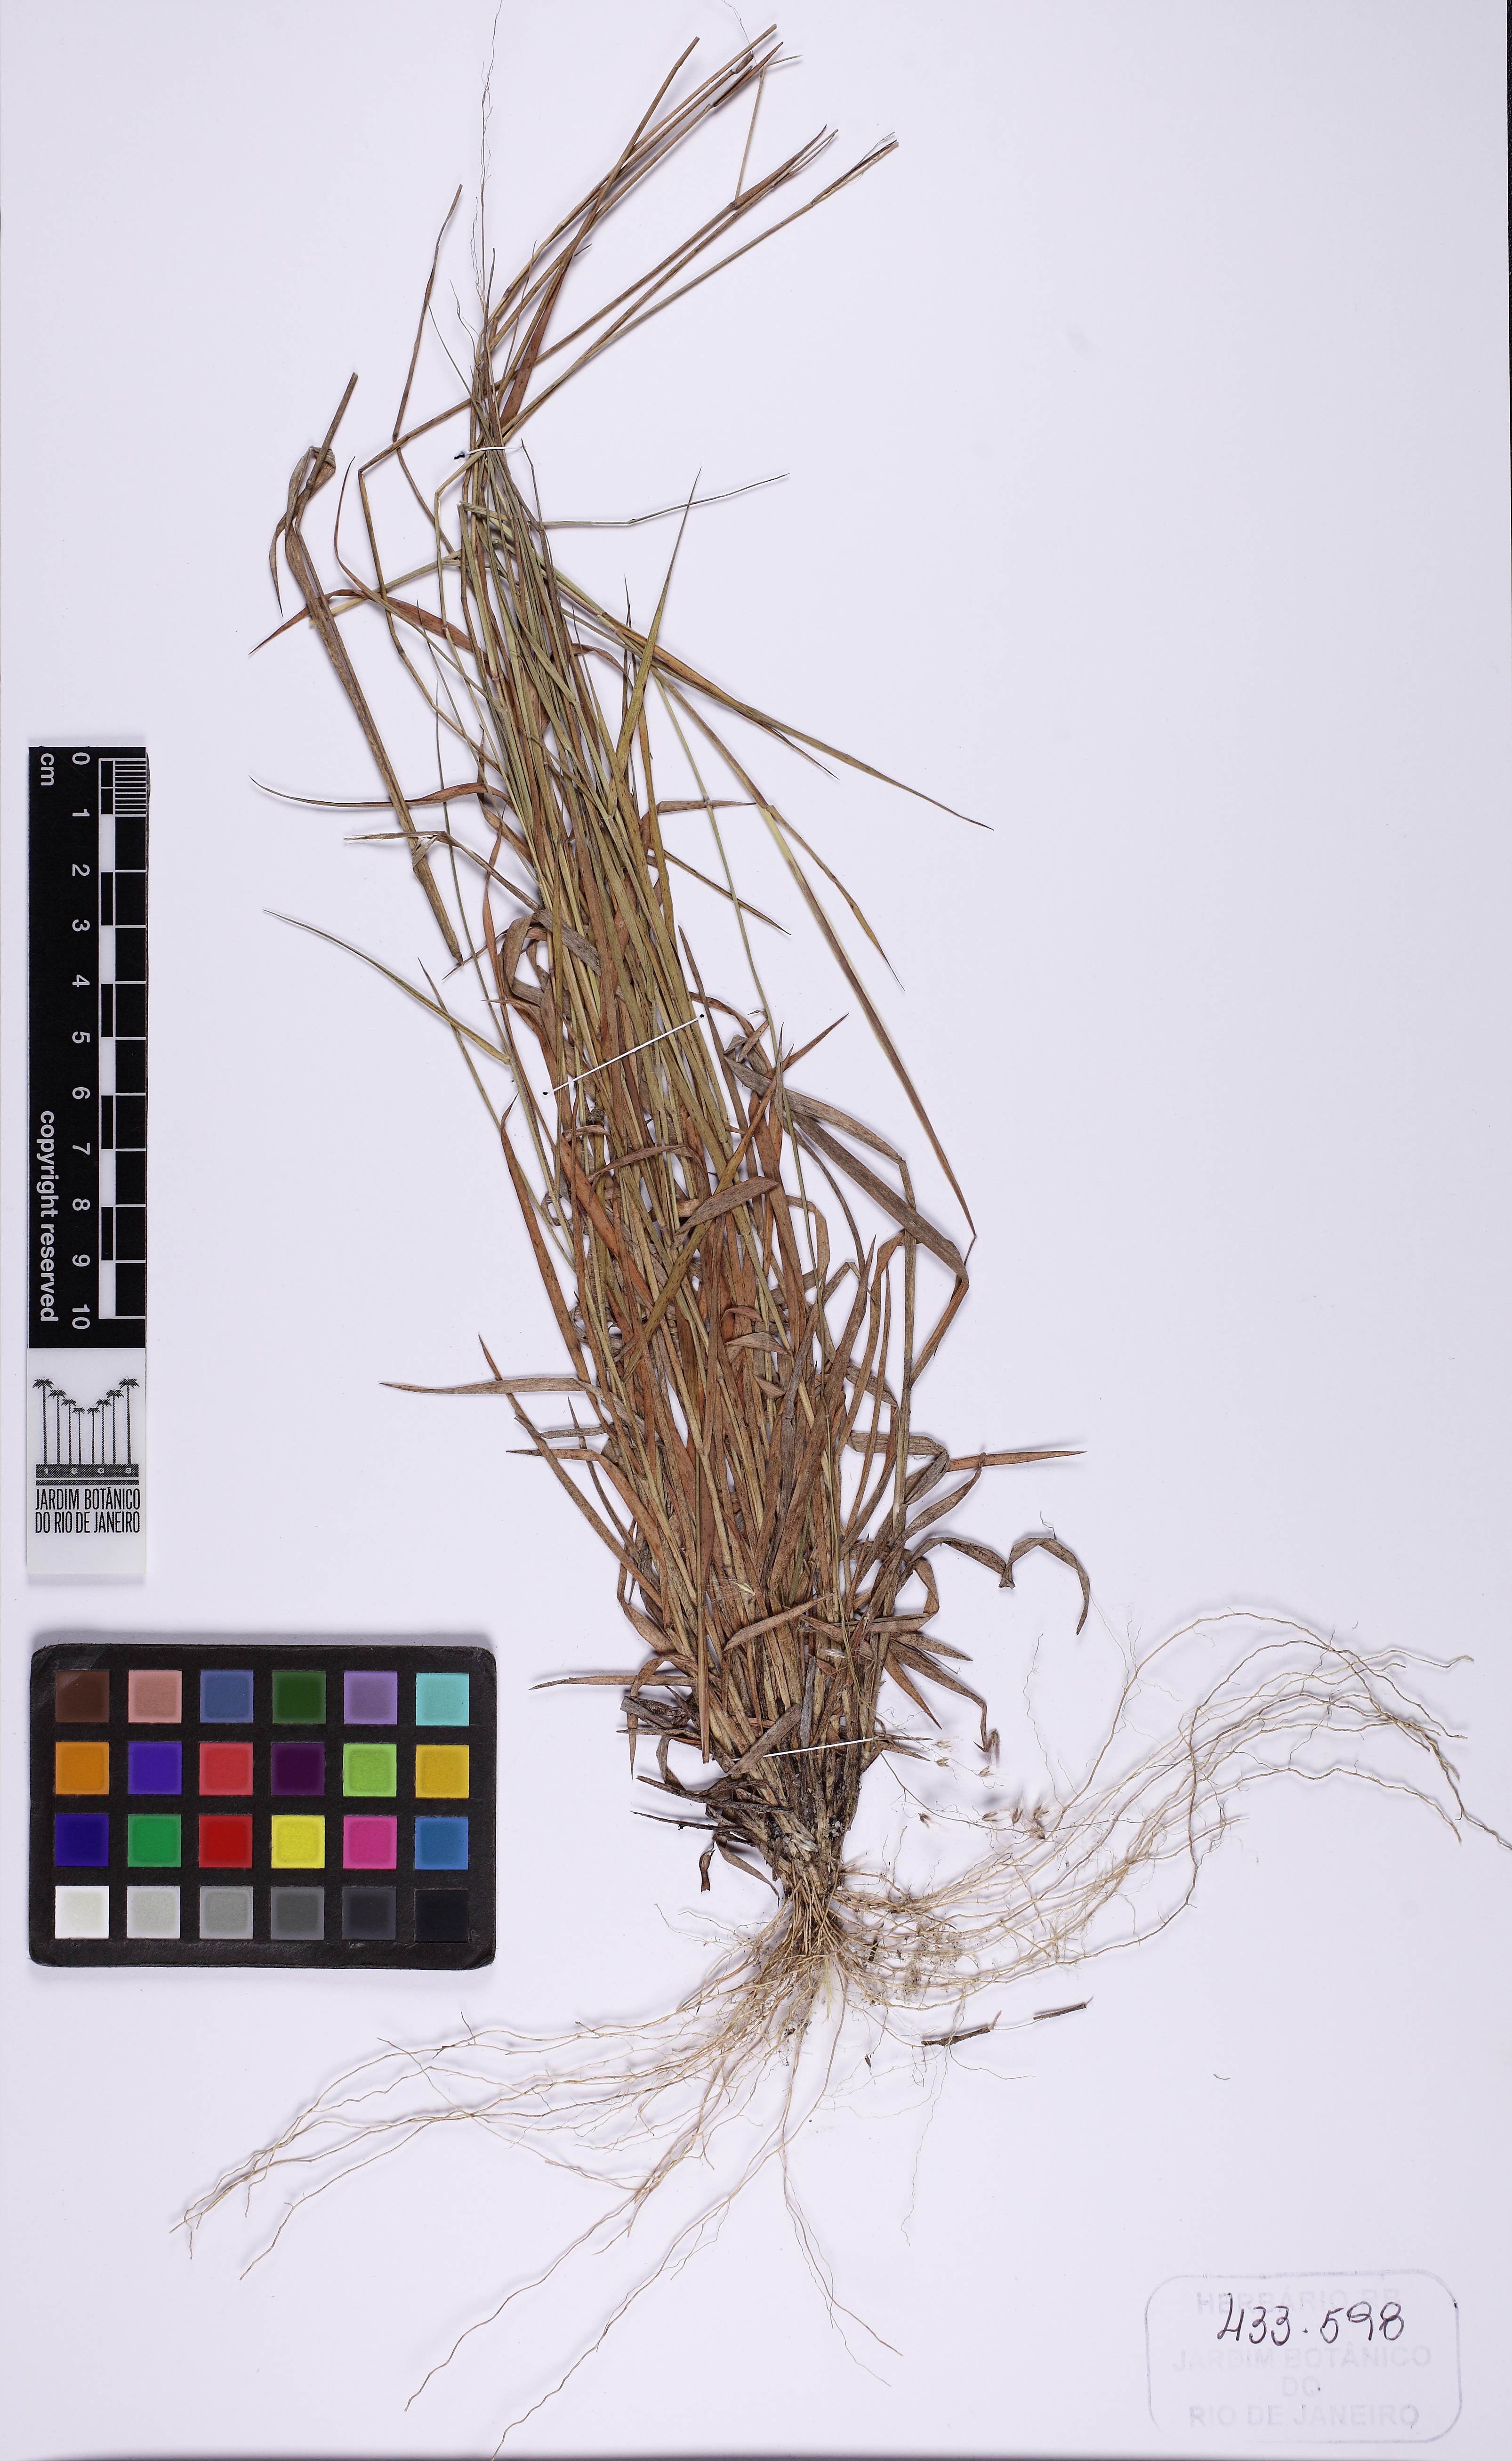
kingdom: Plantae
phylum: Tracheophyta
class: Liliopsida
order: Poales
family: Poaceae
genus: Melinis
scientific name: Melinis repens
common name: Rose natal grass
